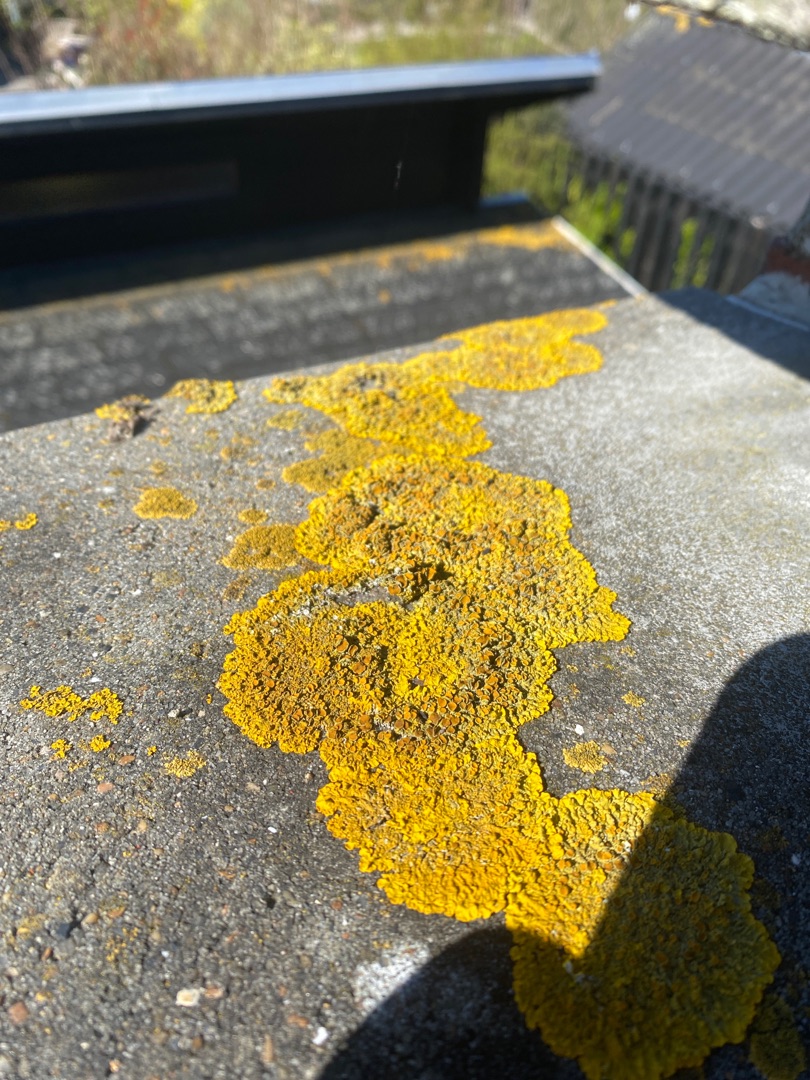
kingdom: Fungi
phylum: Ascomycota
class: Lecanoromycetes
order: Teloschistales
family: Teloschistaceae
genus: Xanthoria
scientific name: Xanthoria parietina
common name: Almindelig væggelav
